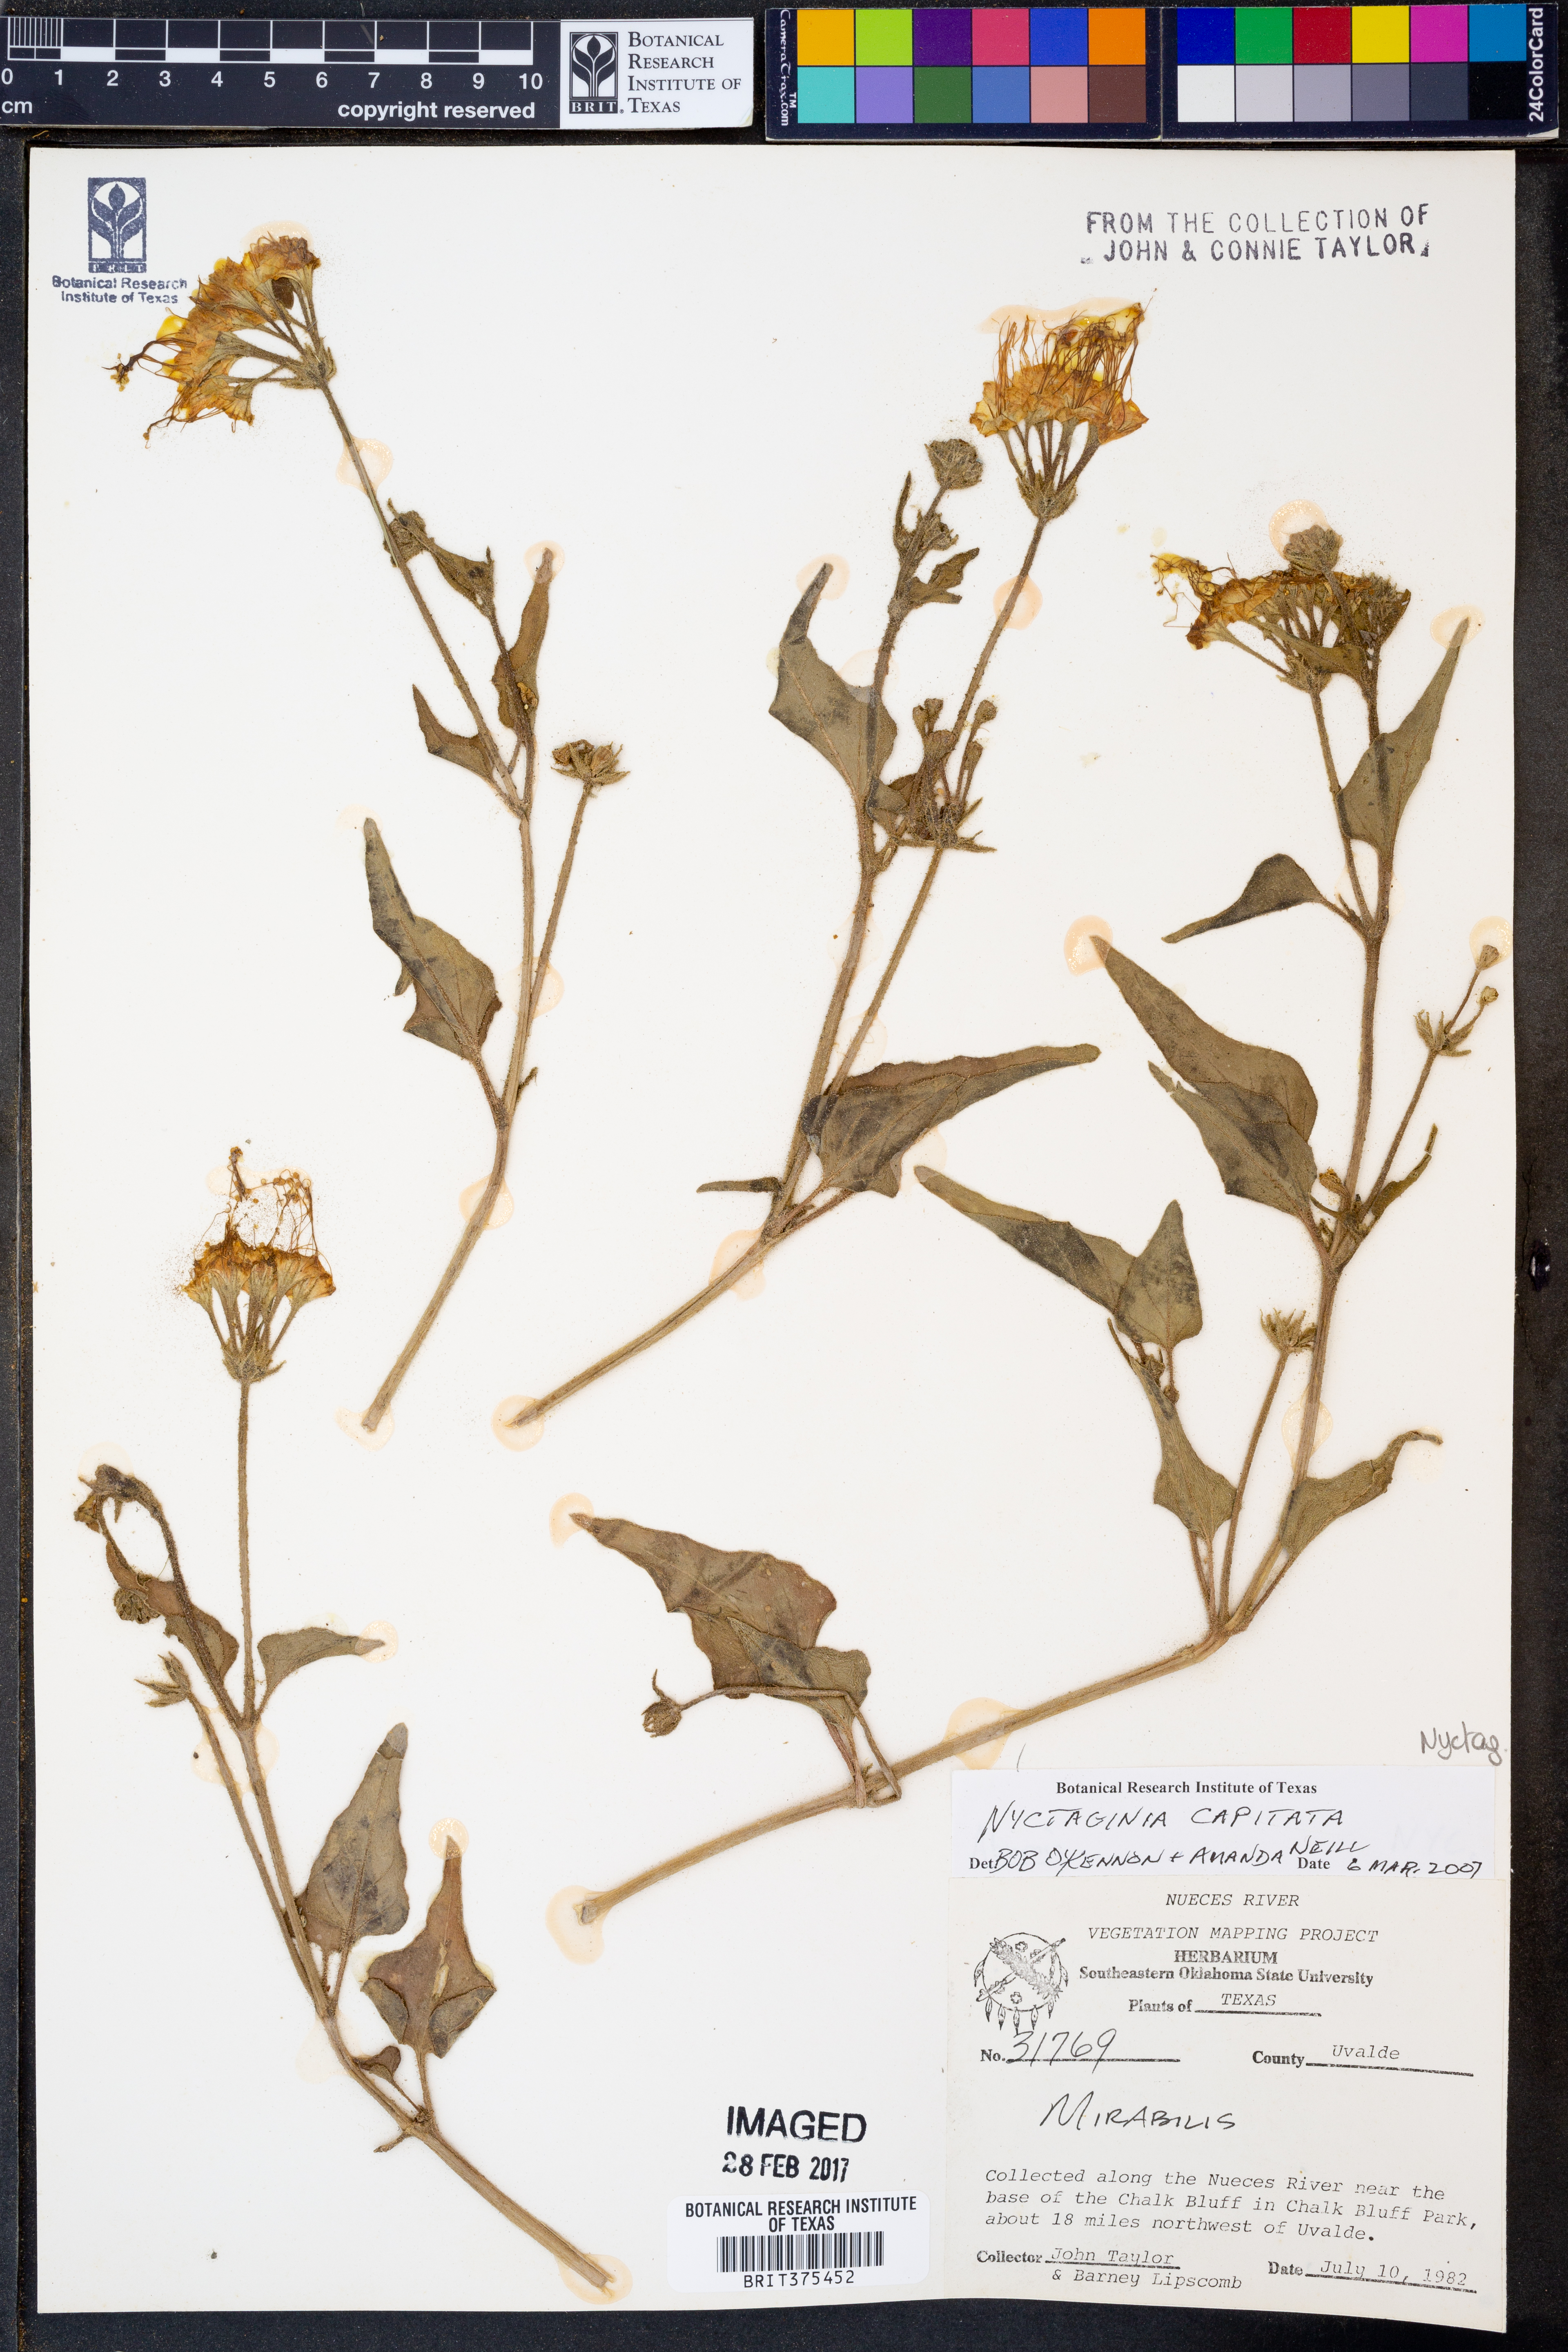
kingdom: Plantae
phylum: Tracheophyta
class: Magnoliopsida
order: Caryophyllales
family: Nyctaginaceae
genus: Nyctaginia
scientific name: Nyctaginia capitata
